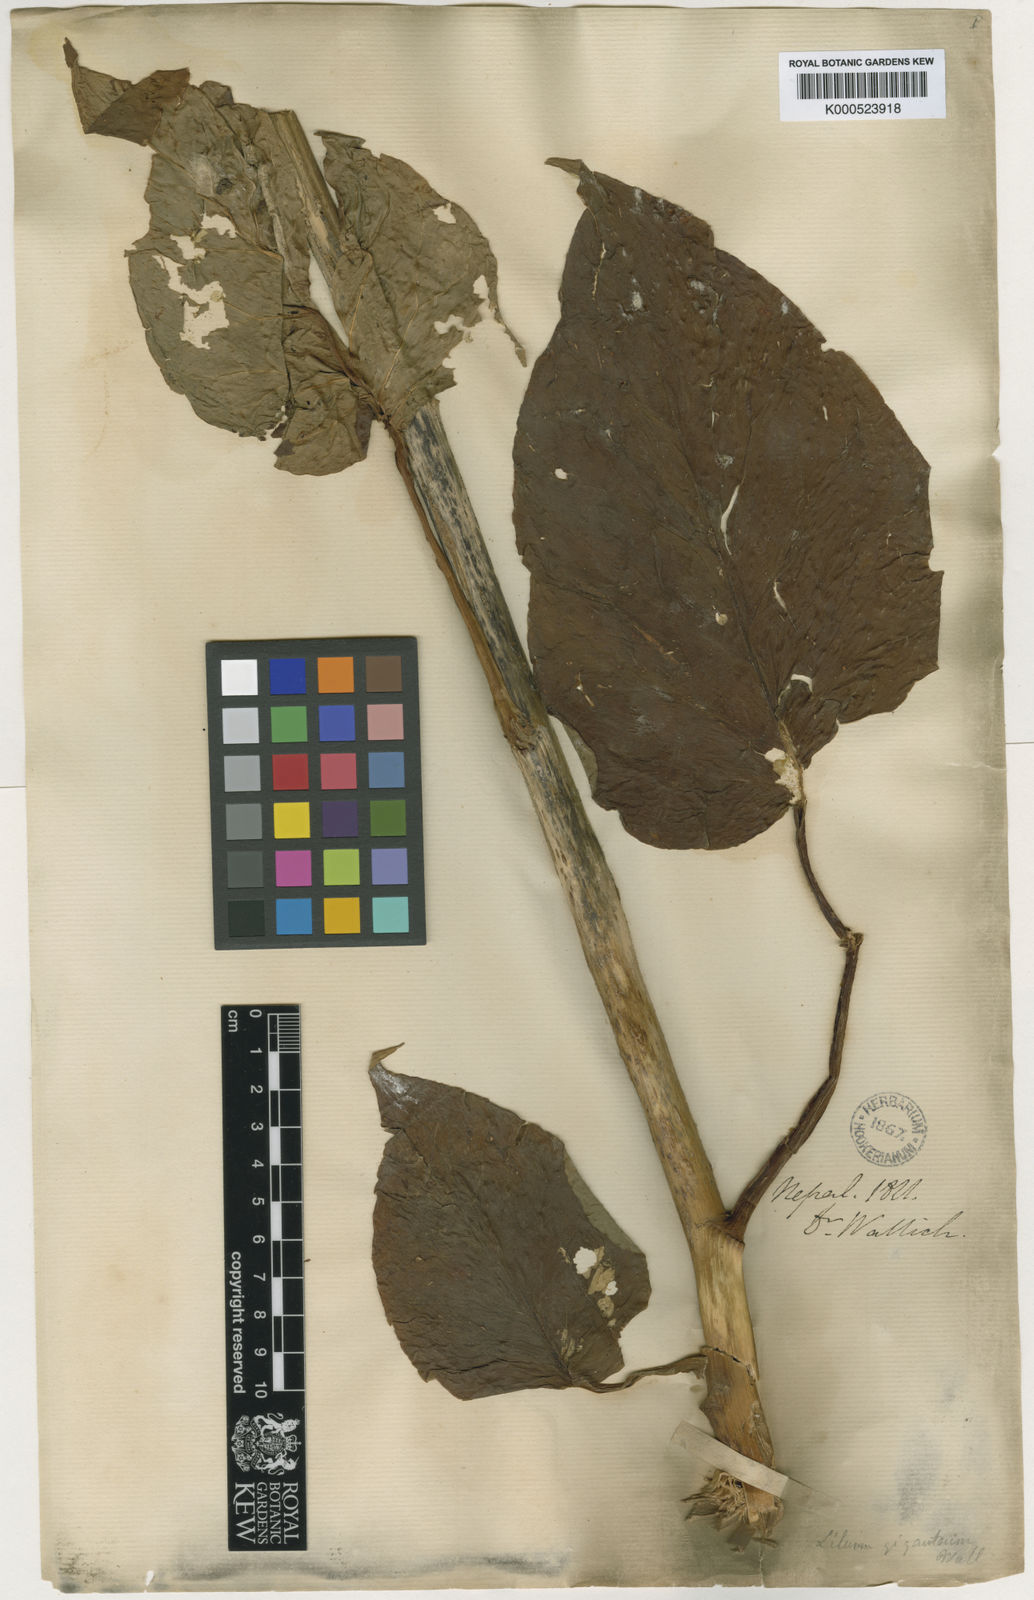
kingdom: Plantae
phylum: Tracheophyta
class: Liliopsida
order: Liliales
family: Liliaceae
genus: Cardiocrinum
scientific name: Cardiocrinum giganteum
